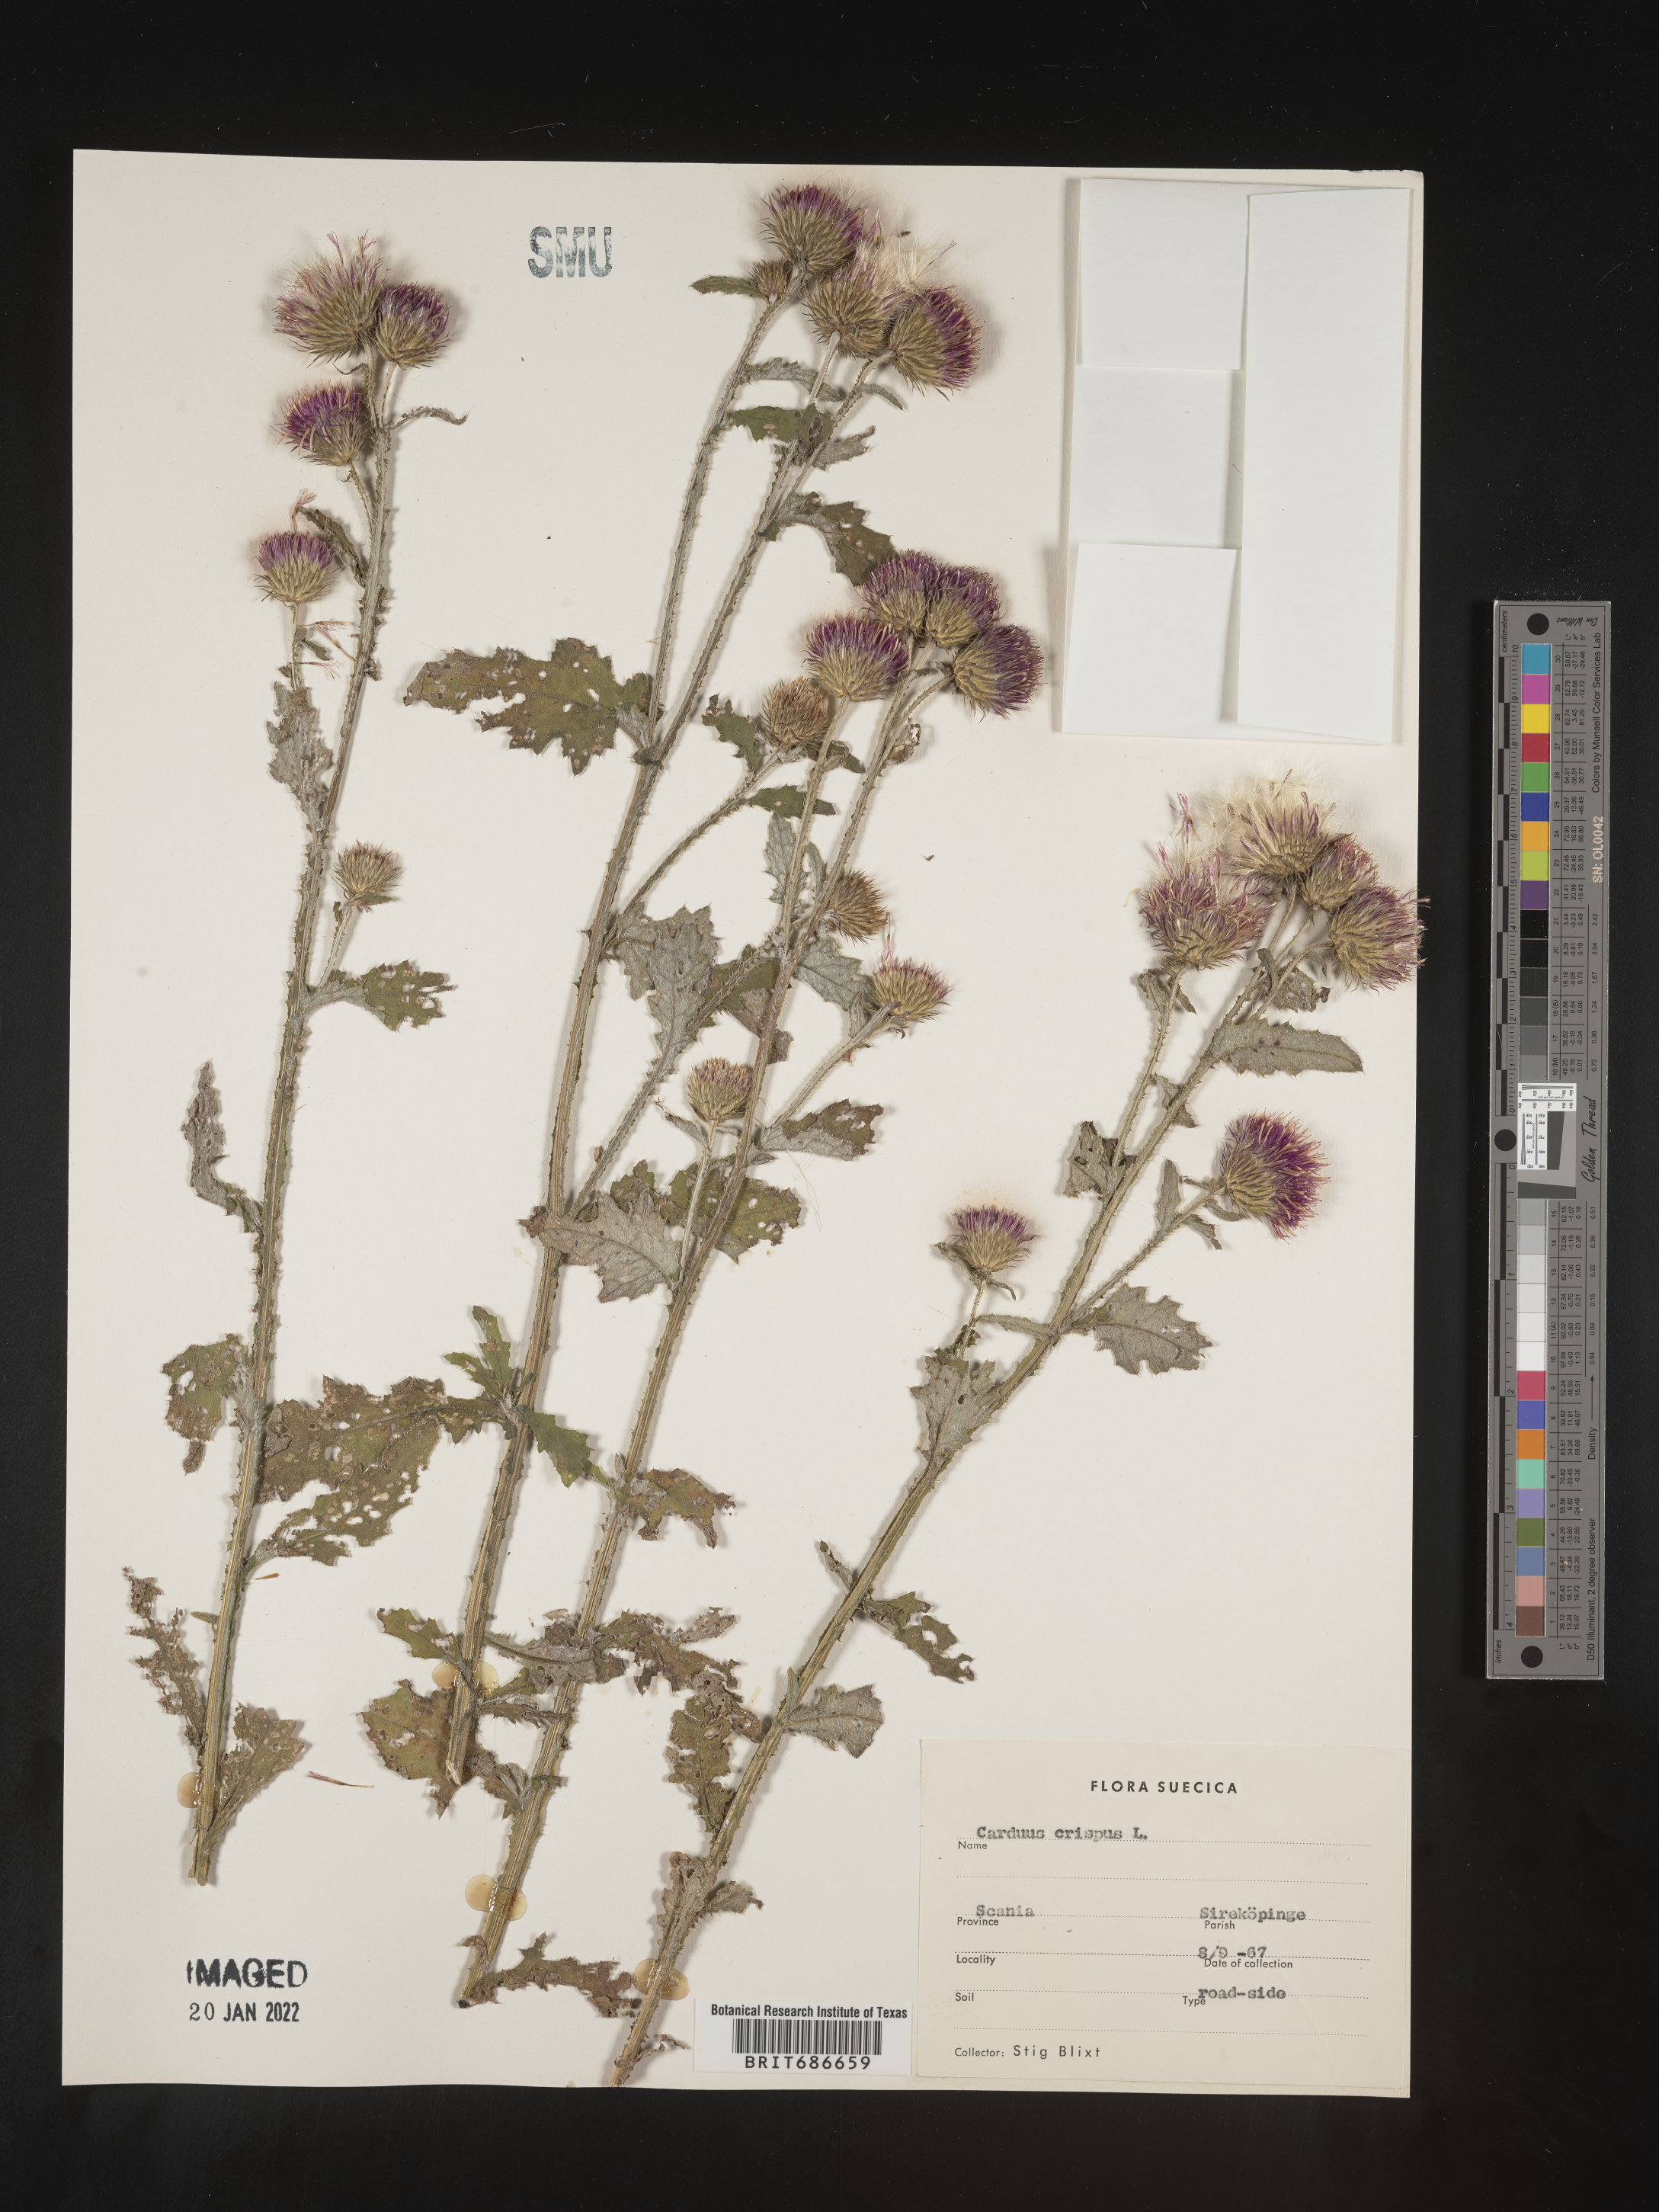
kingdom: Plantae
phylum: Tracheophyta
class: Magnoliopsida
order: Asterales
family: Asteraceae
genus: Carduus
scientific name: Carduus crispus
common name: Welted thistle
